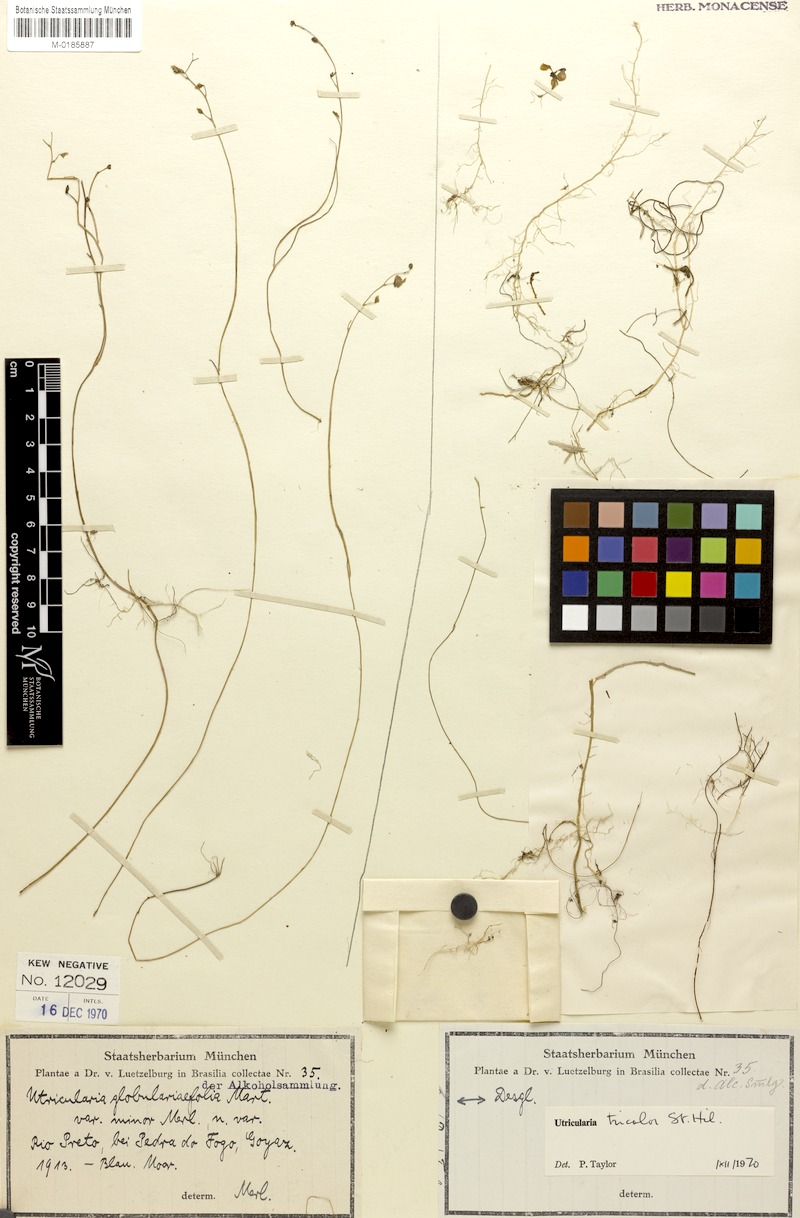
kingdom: Plantae
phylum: Tracheophyta
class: Magnoliopsida
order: Lamiales
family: Lentibulariaceae
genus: Utricularia
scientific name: Utricularia tricolor
